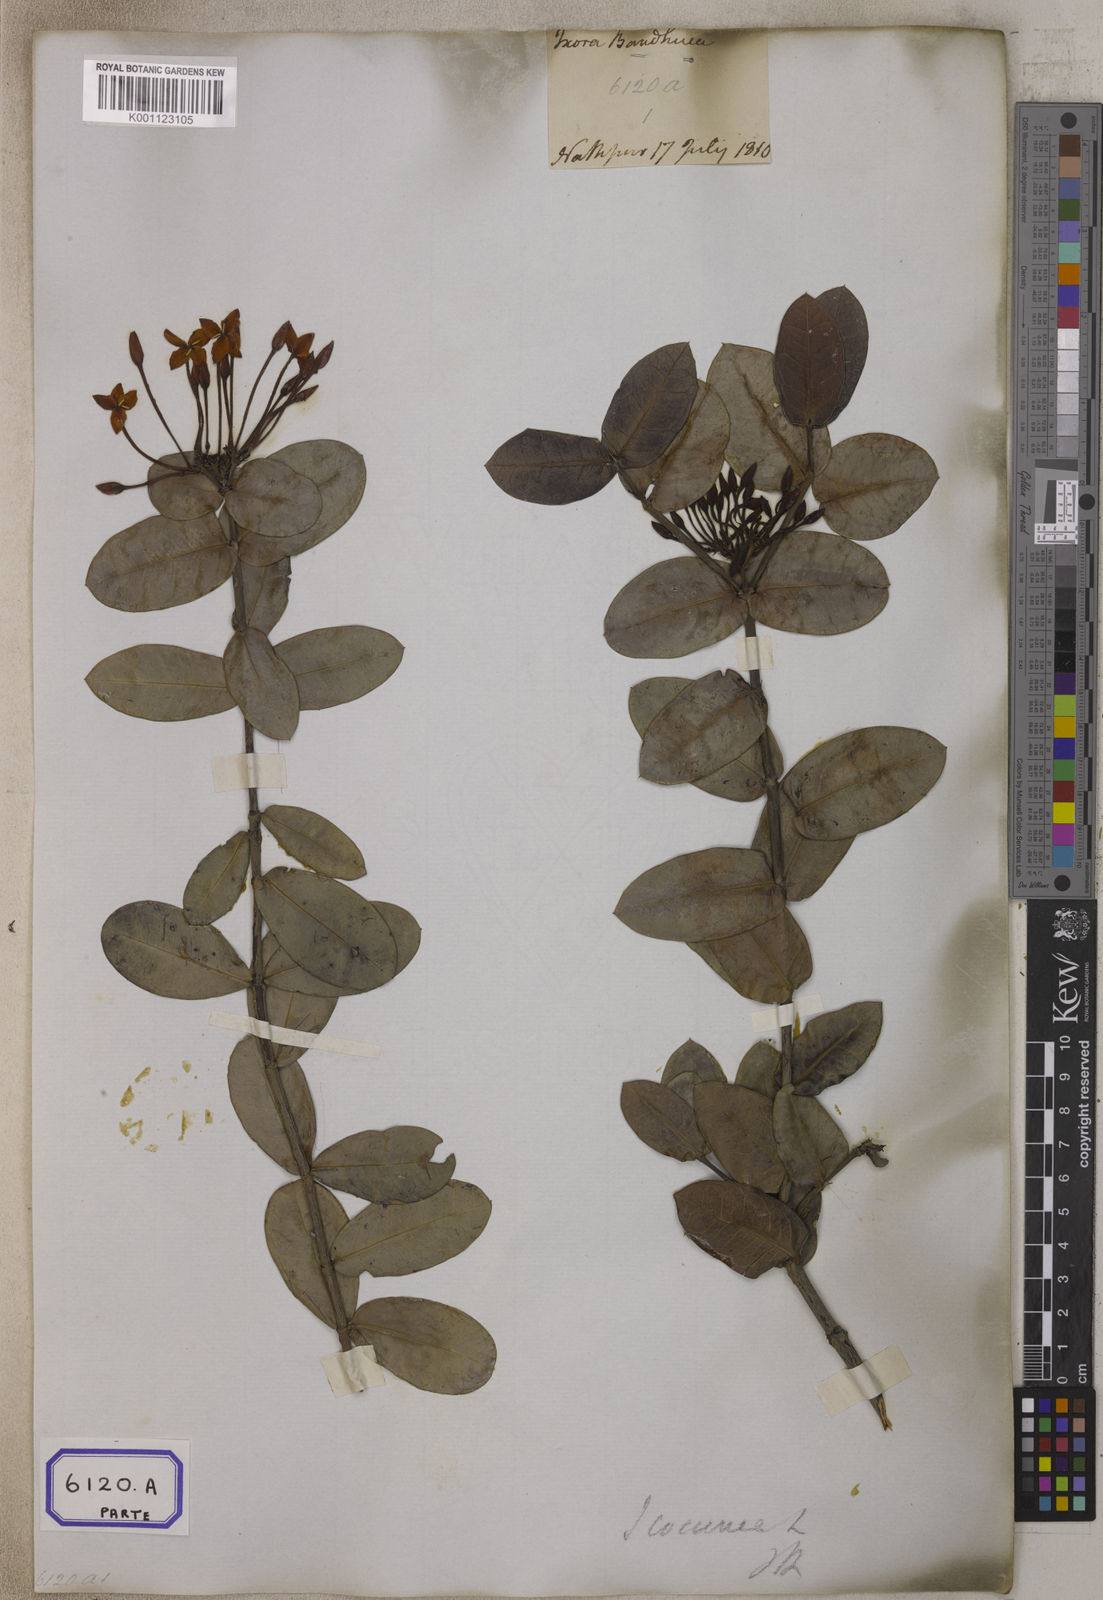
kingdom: Plantae
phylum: Tracheophyta
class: Magnoliopsida
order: Gentianales
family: Rubiaceae
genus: Ixora
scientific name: Ixora coccinea
